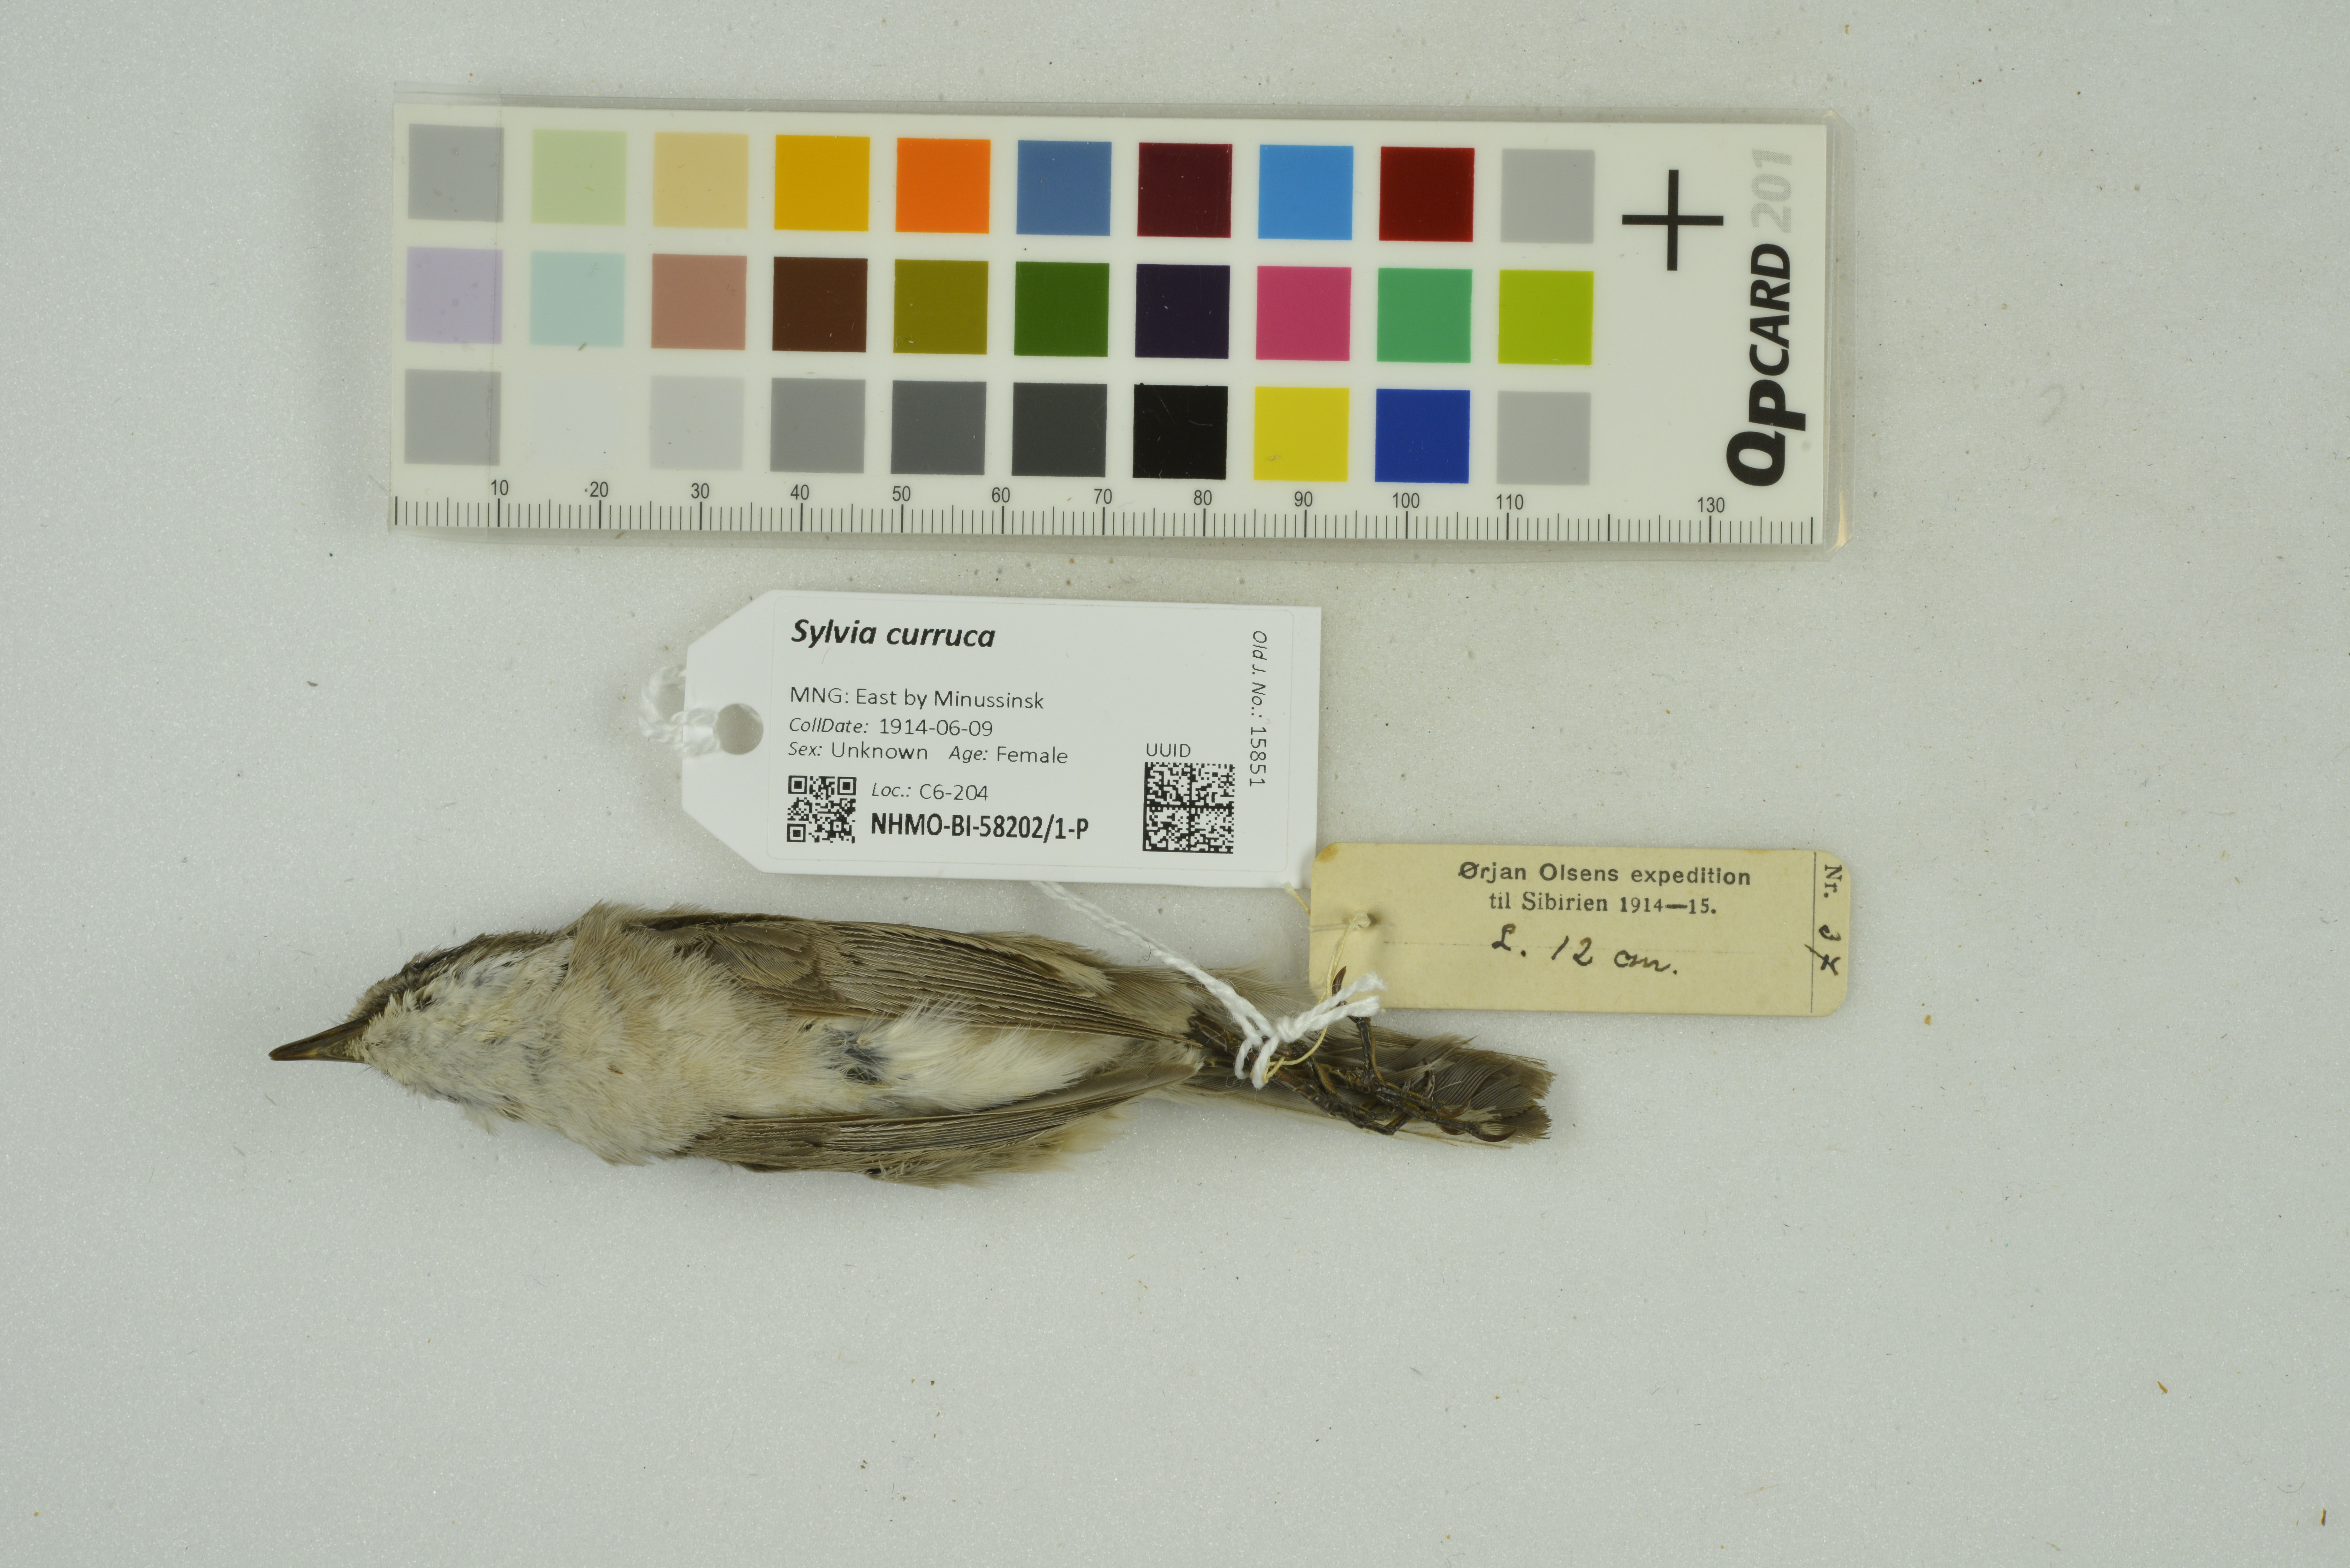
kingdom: Animalia
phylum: Chordata
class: Aves
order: Passeriformes
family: Sylviidae
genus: Sylvia
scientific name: Sylvia curruca
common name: Lesser whitethroat
